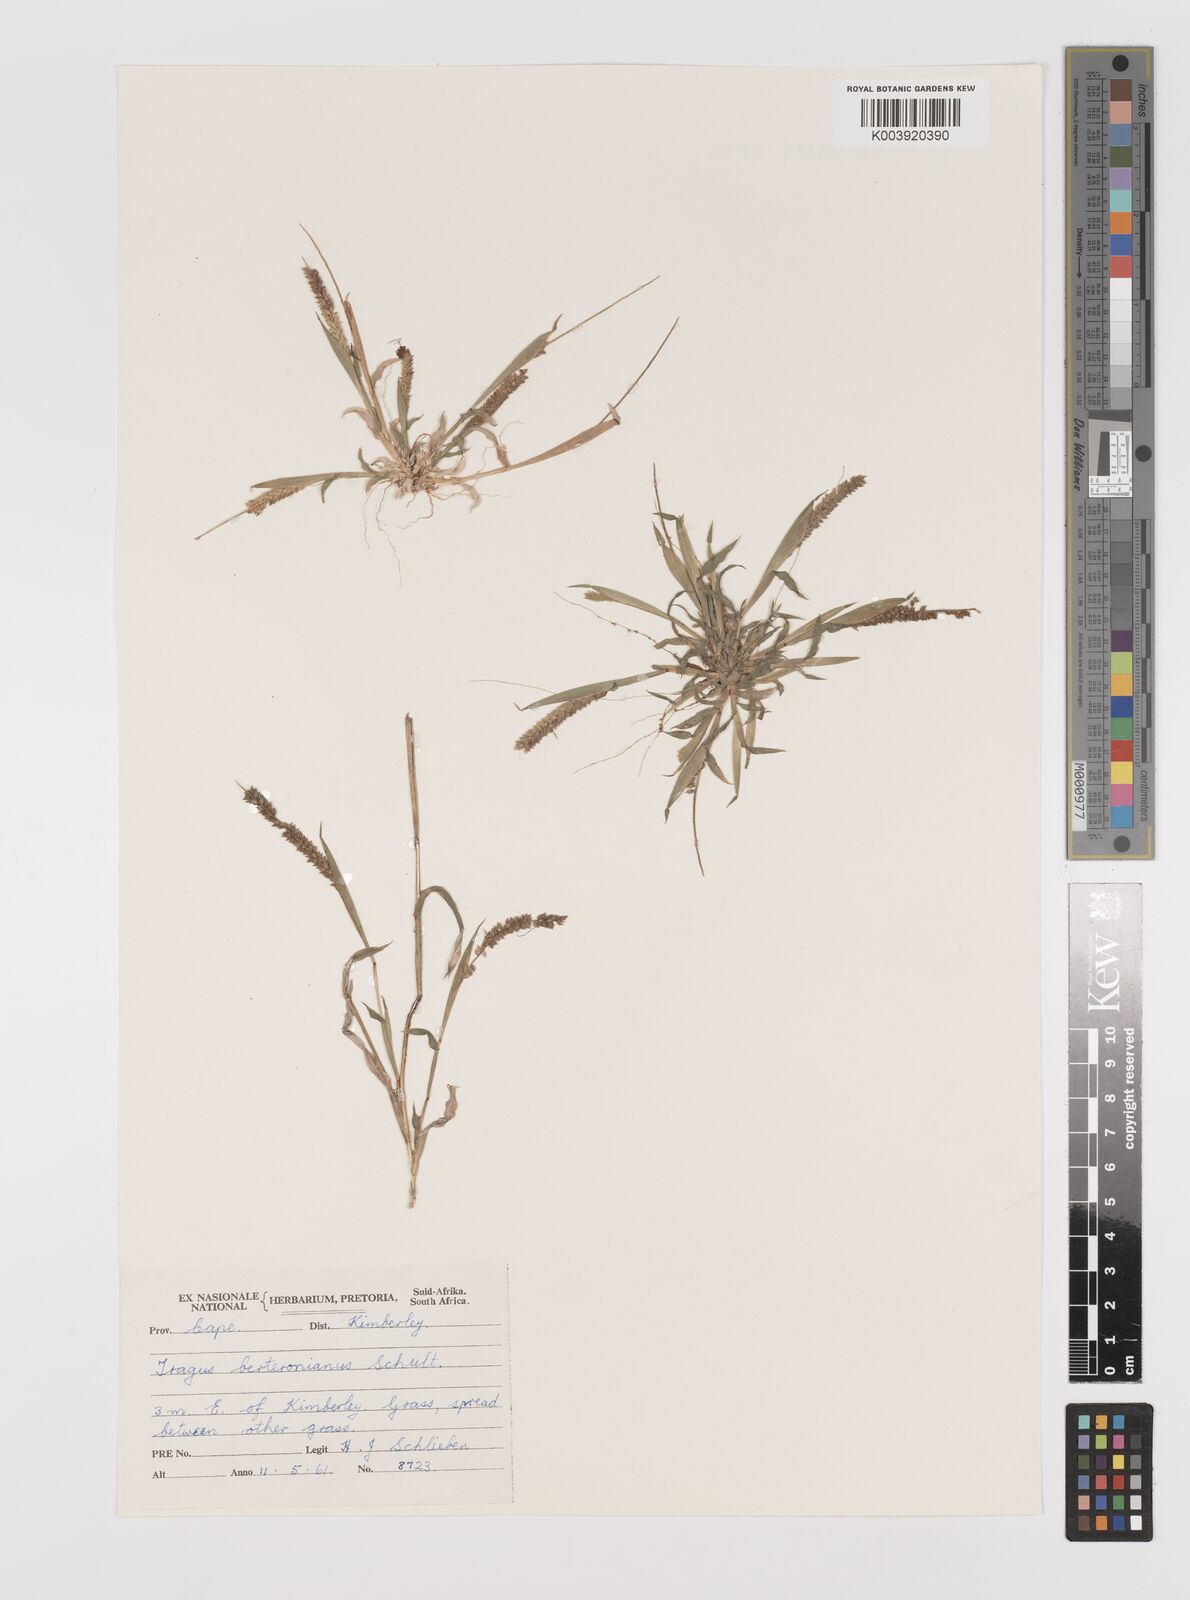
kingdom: Plantae
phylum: Tracheophyta
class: Liliopsida
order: Poales
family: Poaceae
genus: Tragus
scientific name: Tragus berteronianus
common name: African bur-grass
